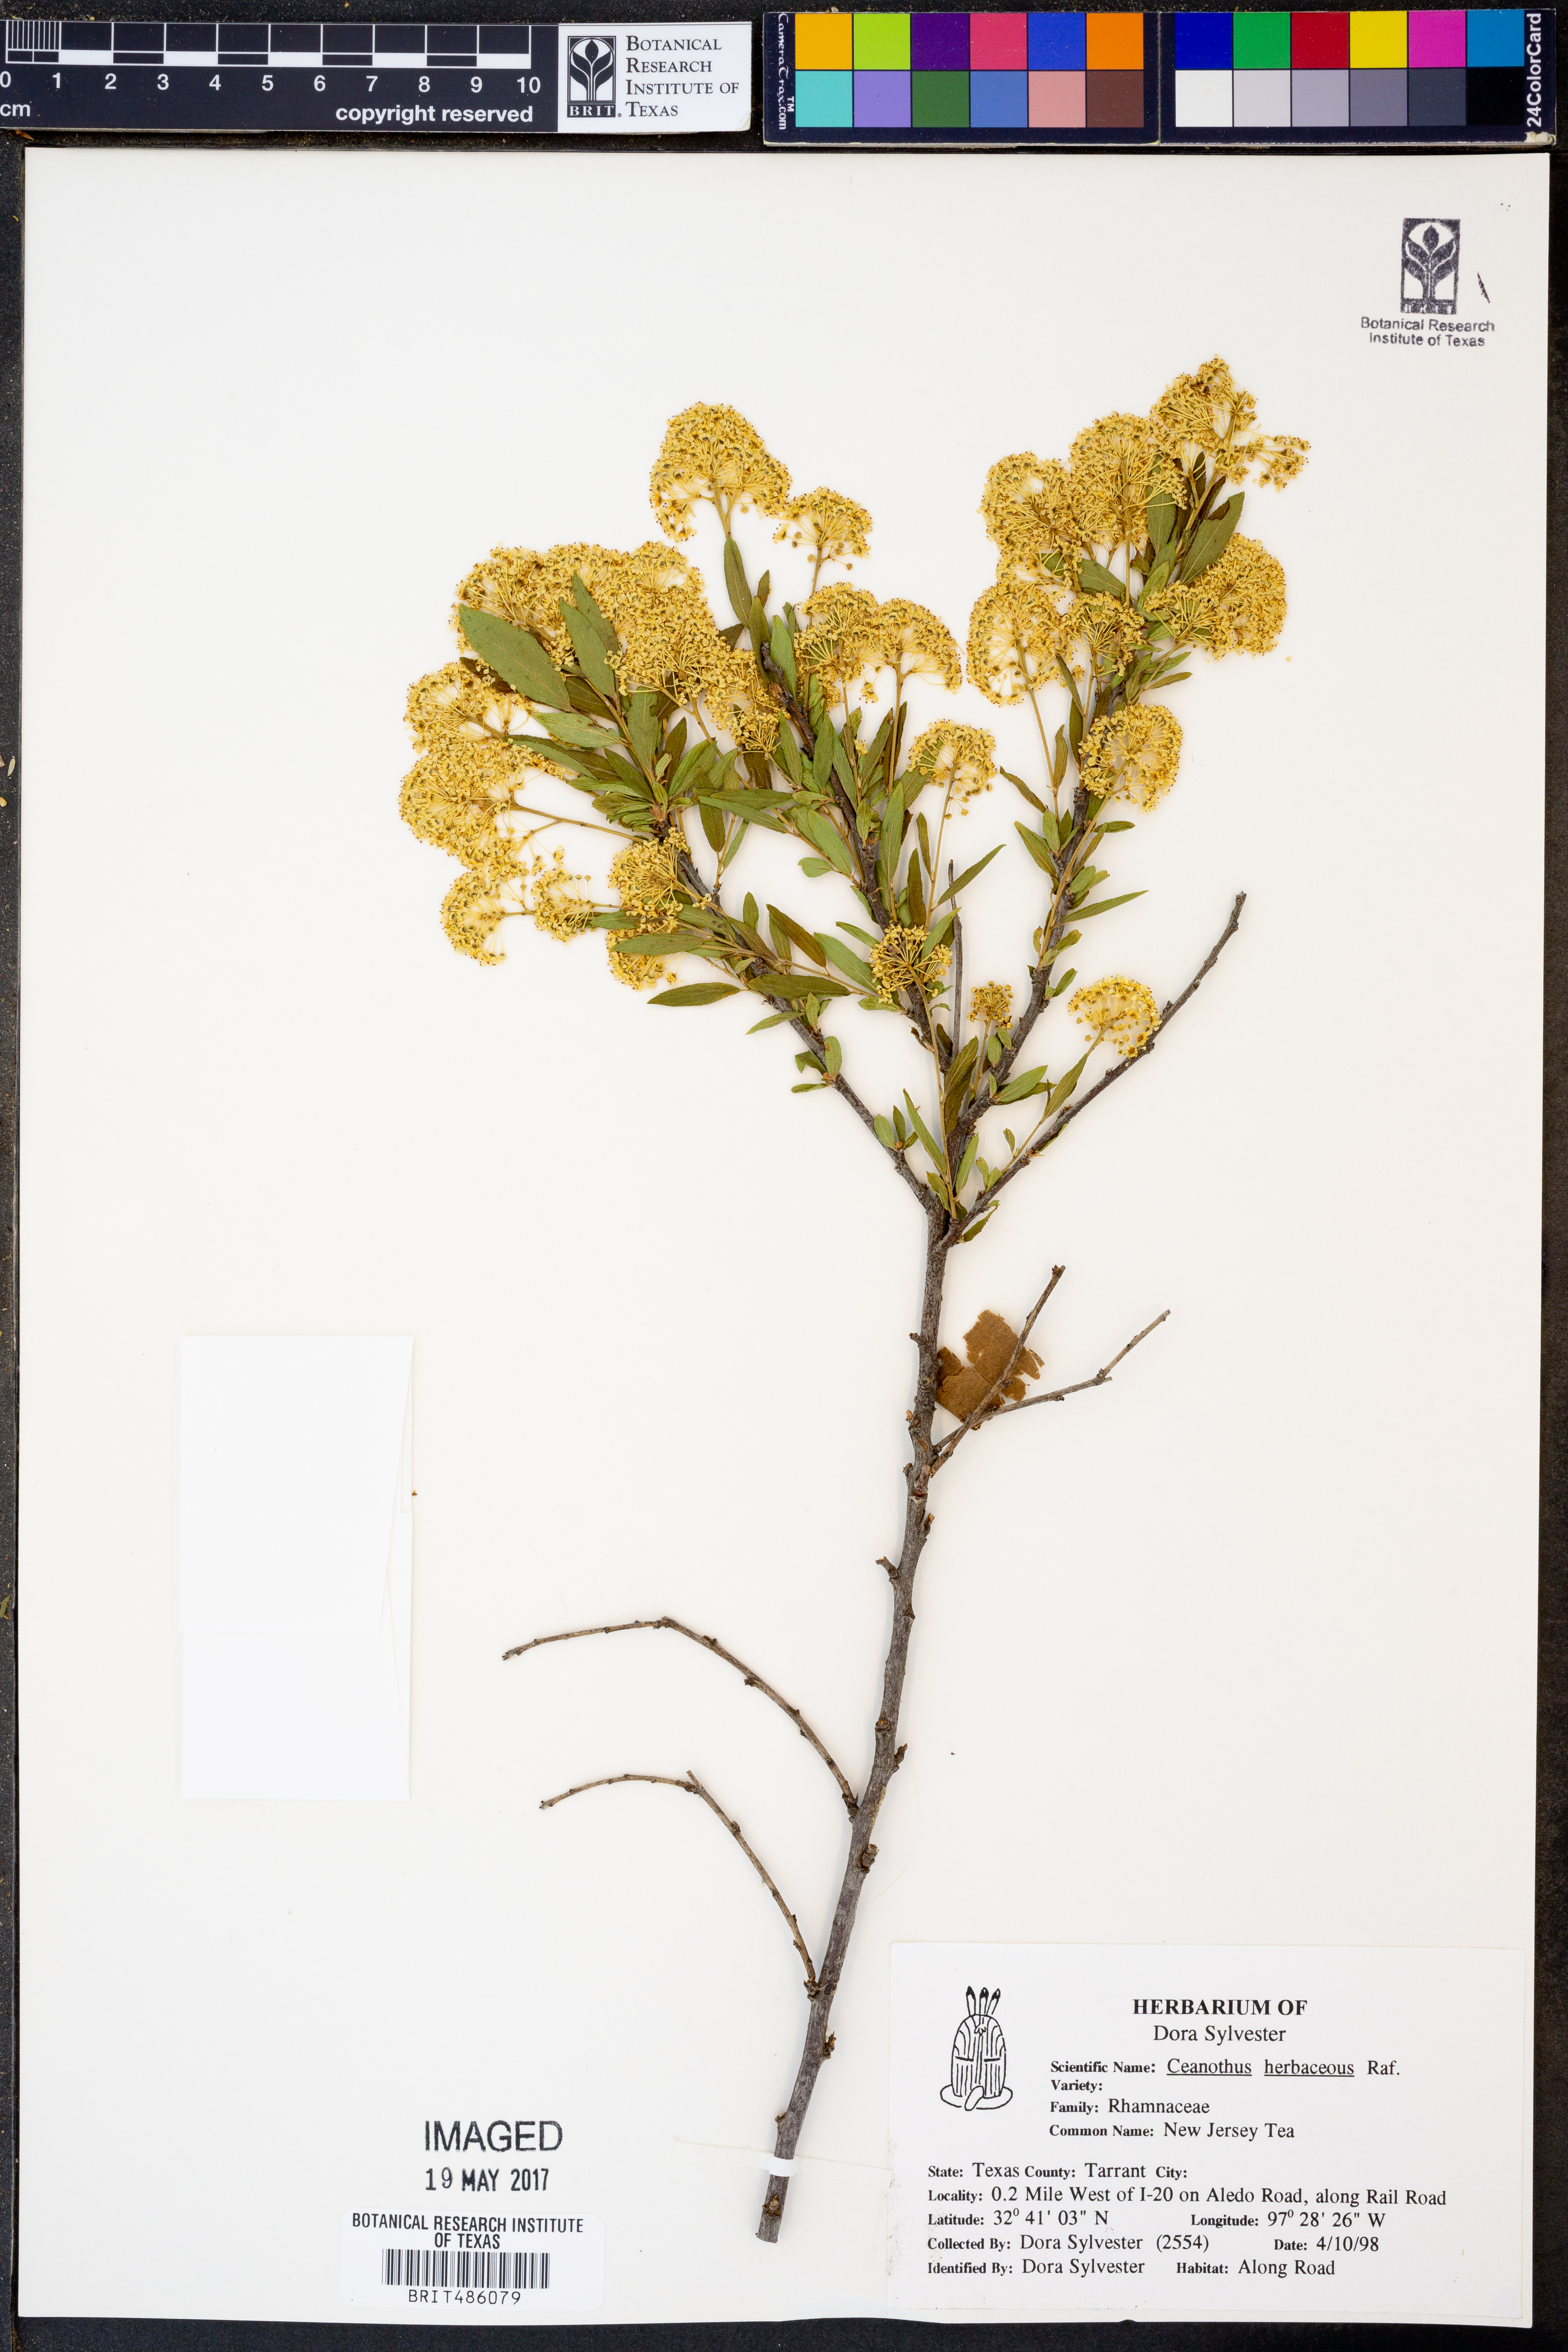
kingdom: Plantae
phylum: Tracheophyta
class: Magnoliopsida
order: Rosales
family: Rhamnaceae
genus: Ceanothus
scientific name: Ceanothus herbaceus
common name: Inland ceanothus
